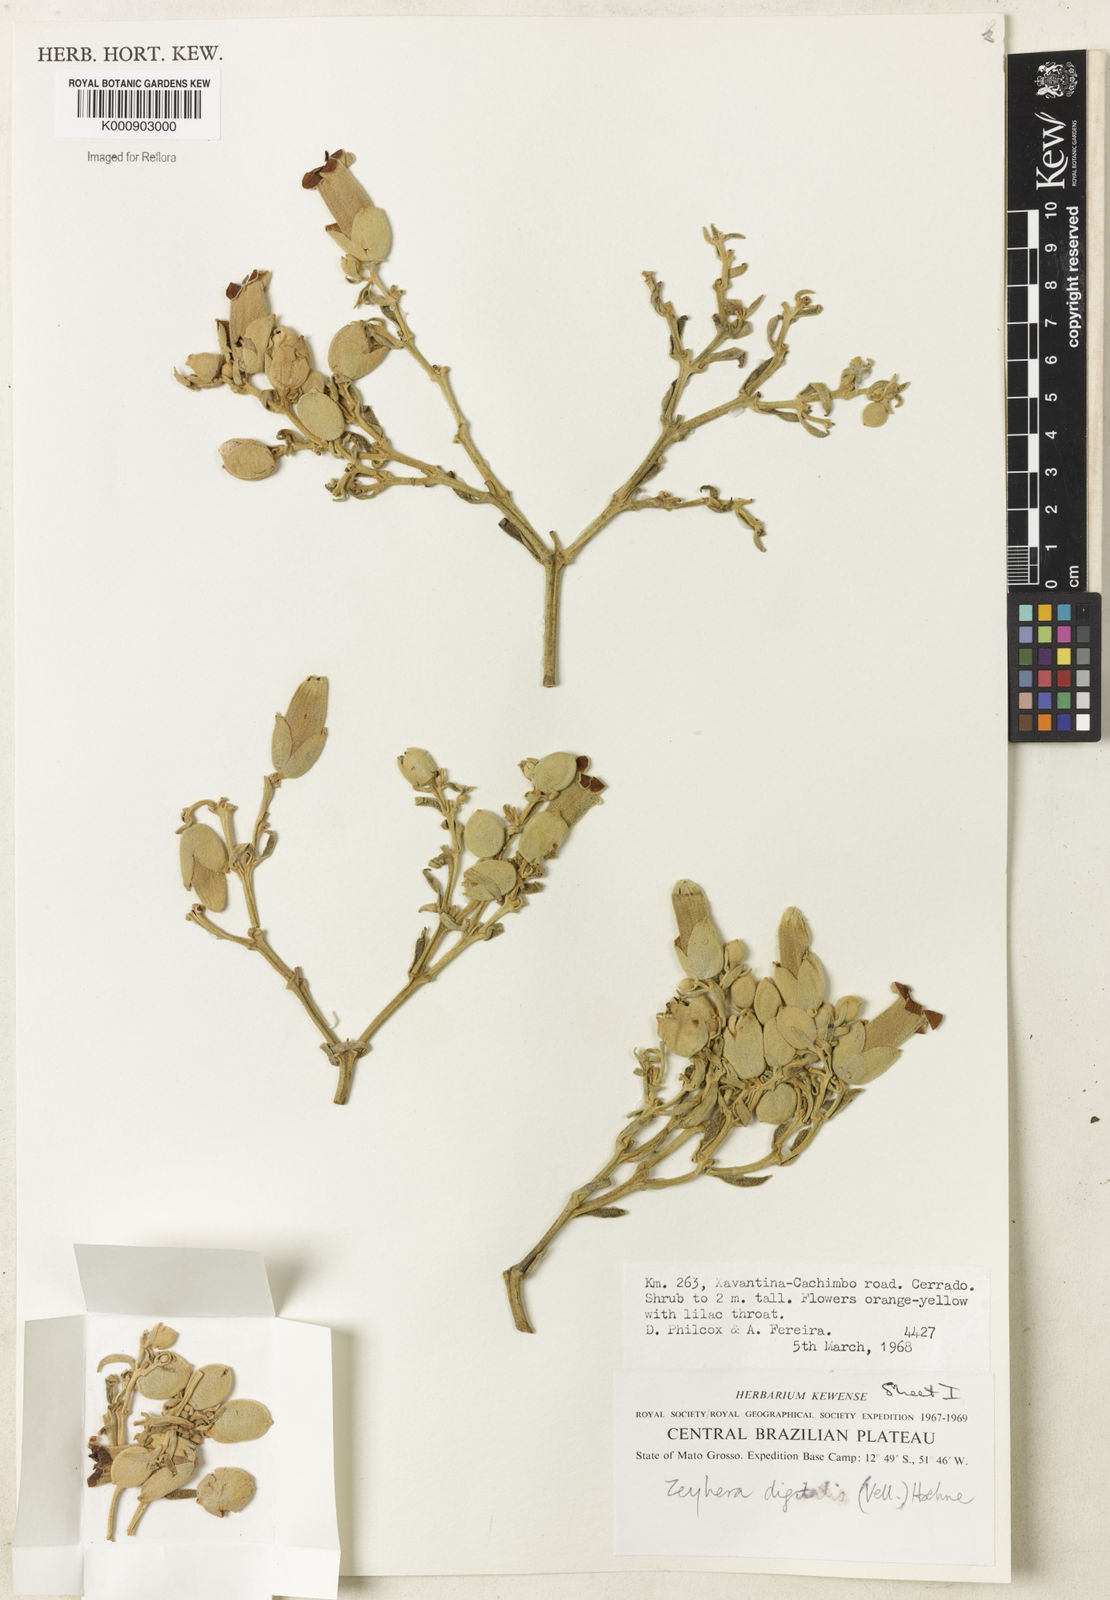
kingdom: Plantae
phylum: Tracheophyta
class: Magnoliopsida
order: Lamiales
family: Bignoniaceae
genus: Zeyheria
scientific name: Zeyheria
